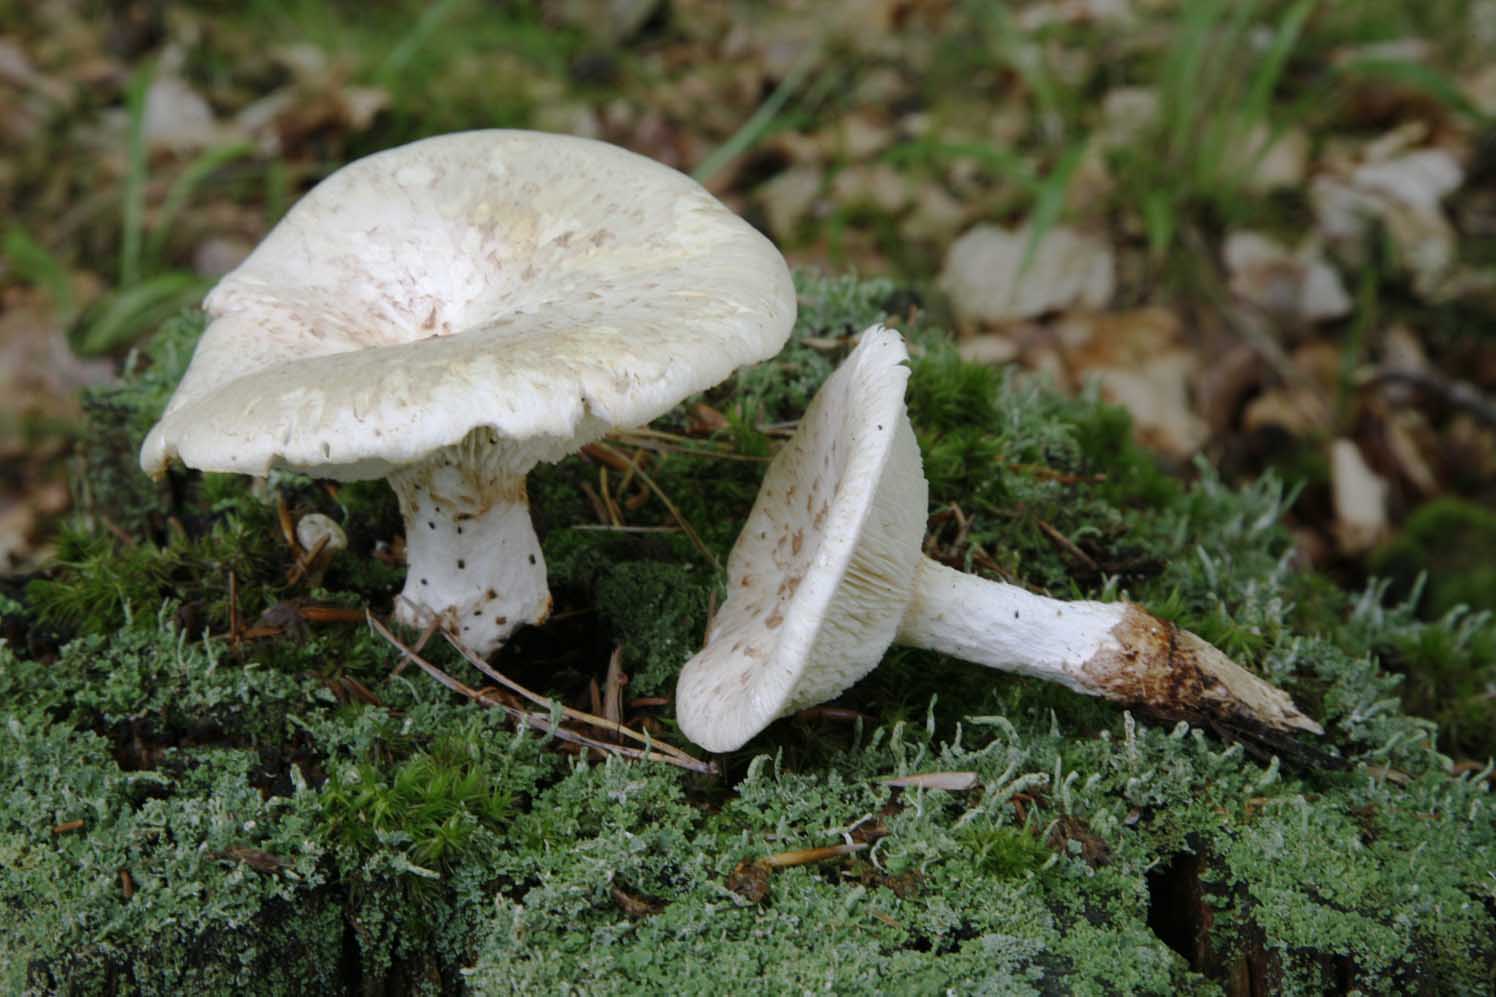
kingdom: Fungi
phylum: Basidiomycota
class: Agaricomycetes
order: Gloeophyllales
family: Gloeophyllaceae
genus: Neolentinus
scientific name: Neolentinus lepideus
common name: skællet sejhat
